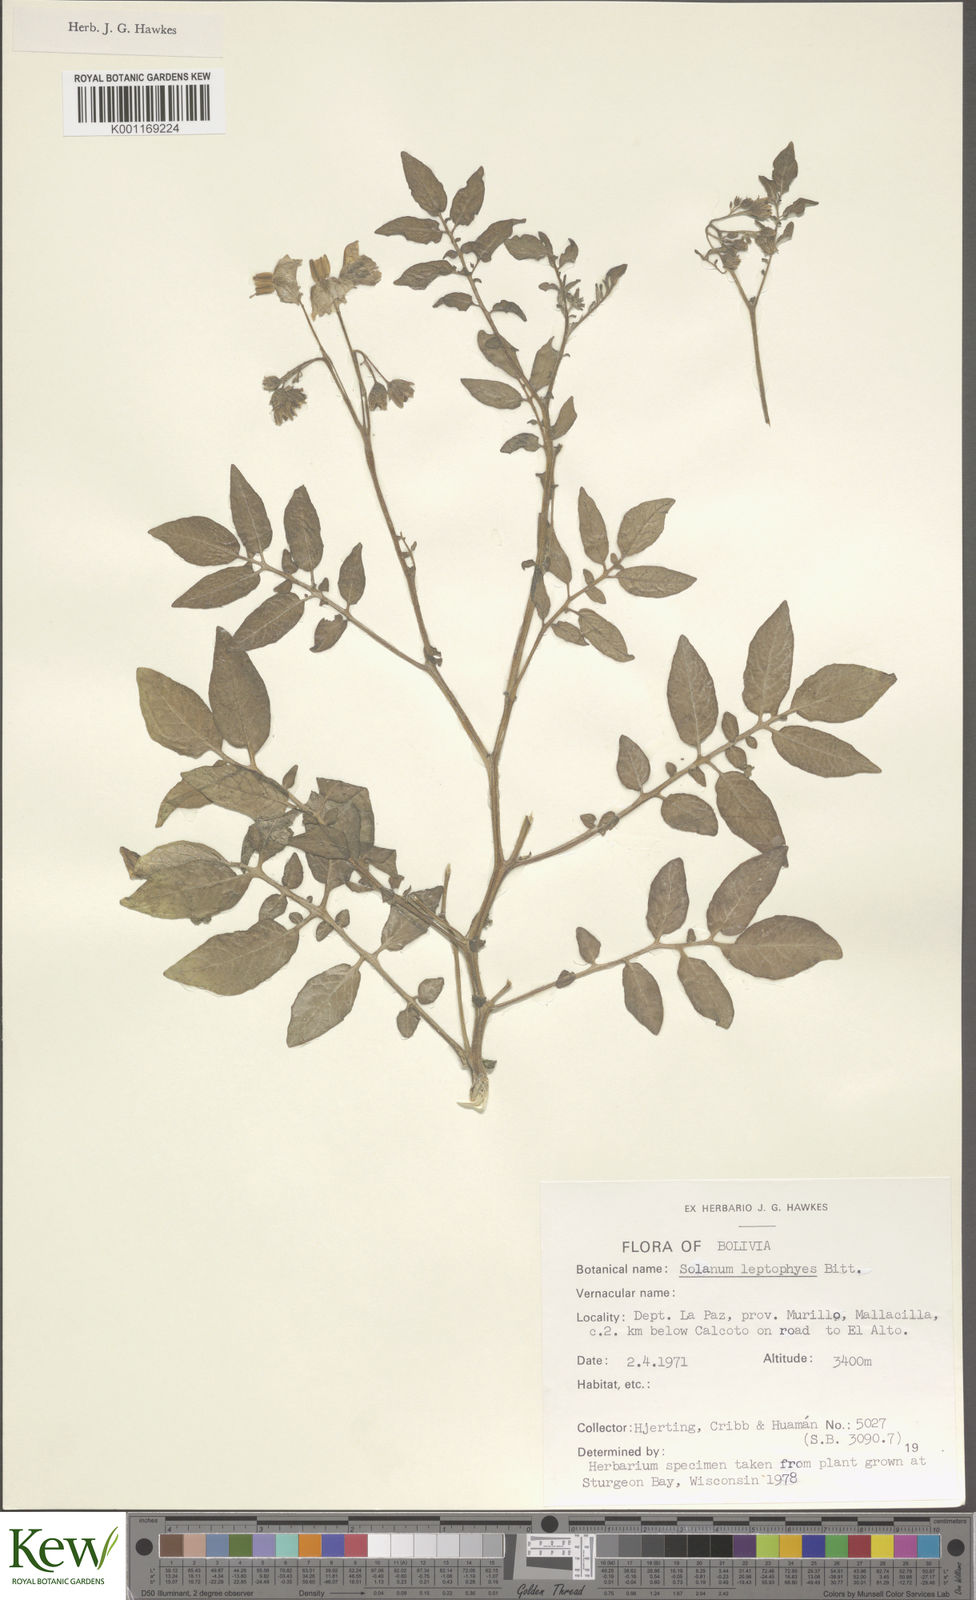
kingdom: Plantae
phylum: Tracheophyta
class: Magnoliopsida
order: Solanales
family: Solanaceae
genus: Solanum
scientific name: Solanum brevicaule
